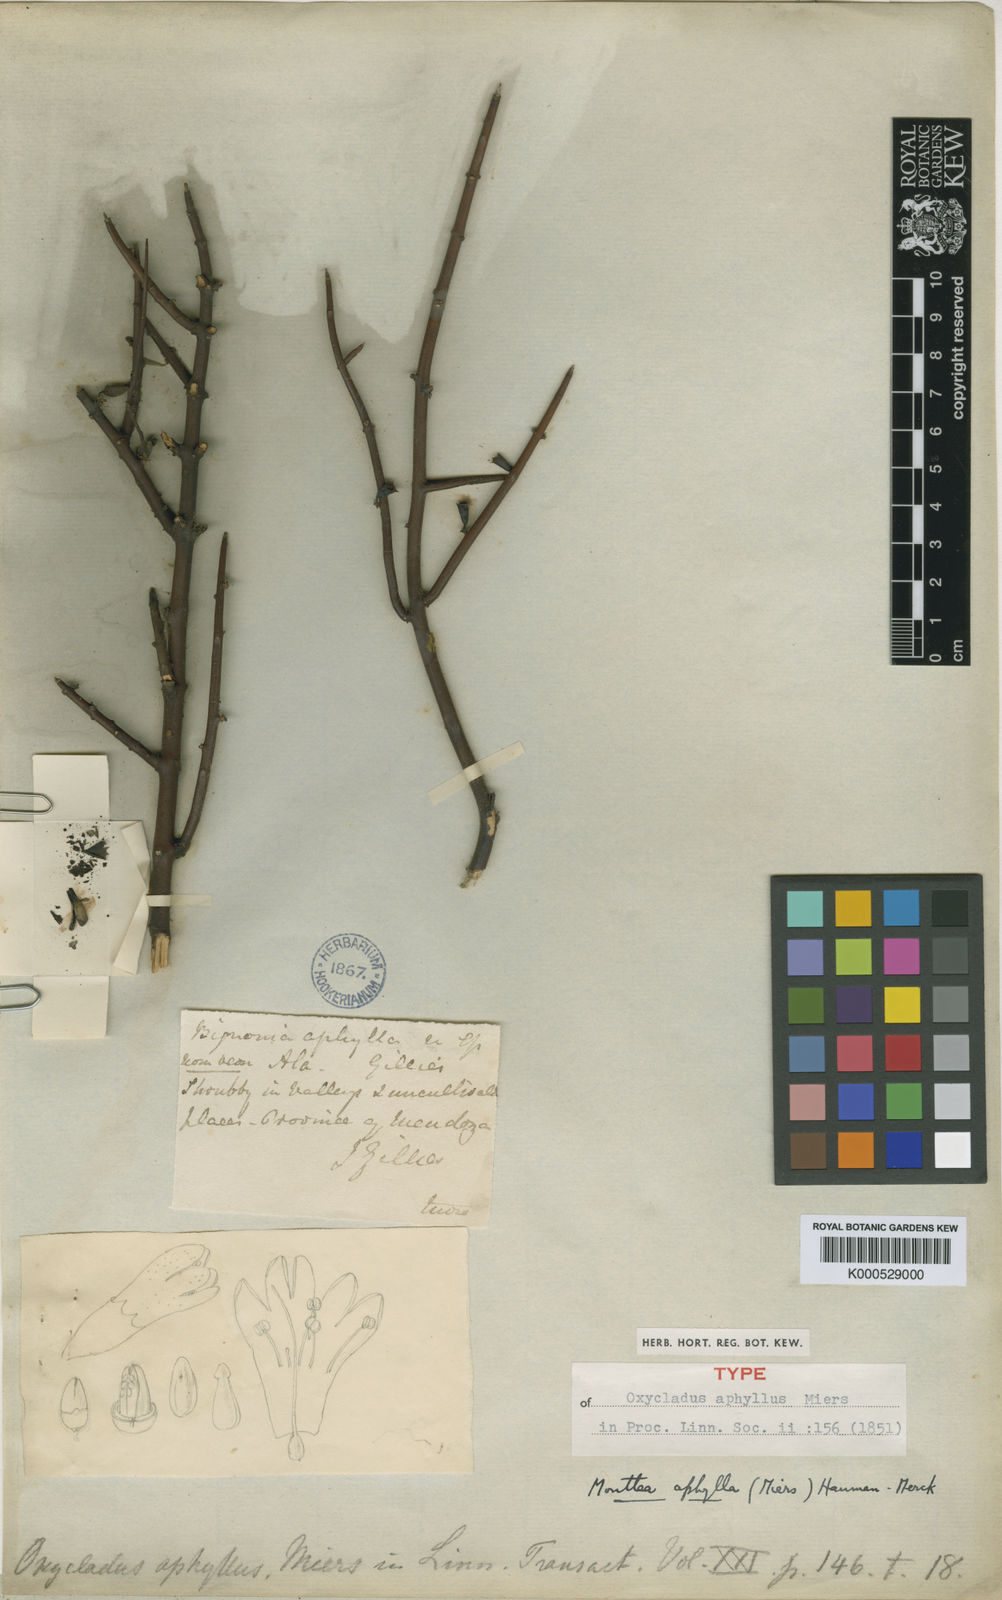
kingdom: Plantae
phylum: Tracheophyta
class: Magnoliopsida
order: Lamiales
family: Plantaginaceae
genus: Monttea
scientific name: Monttea aphylla
